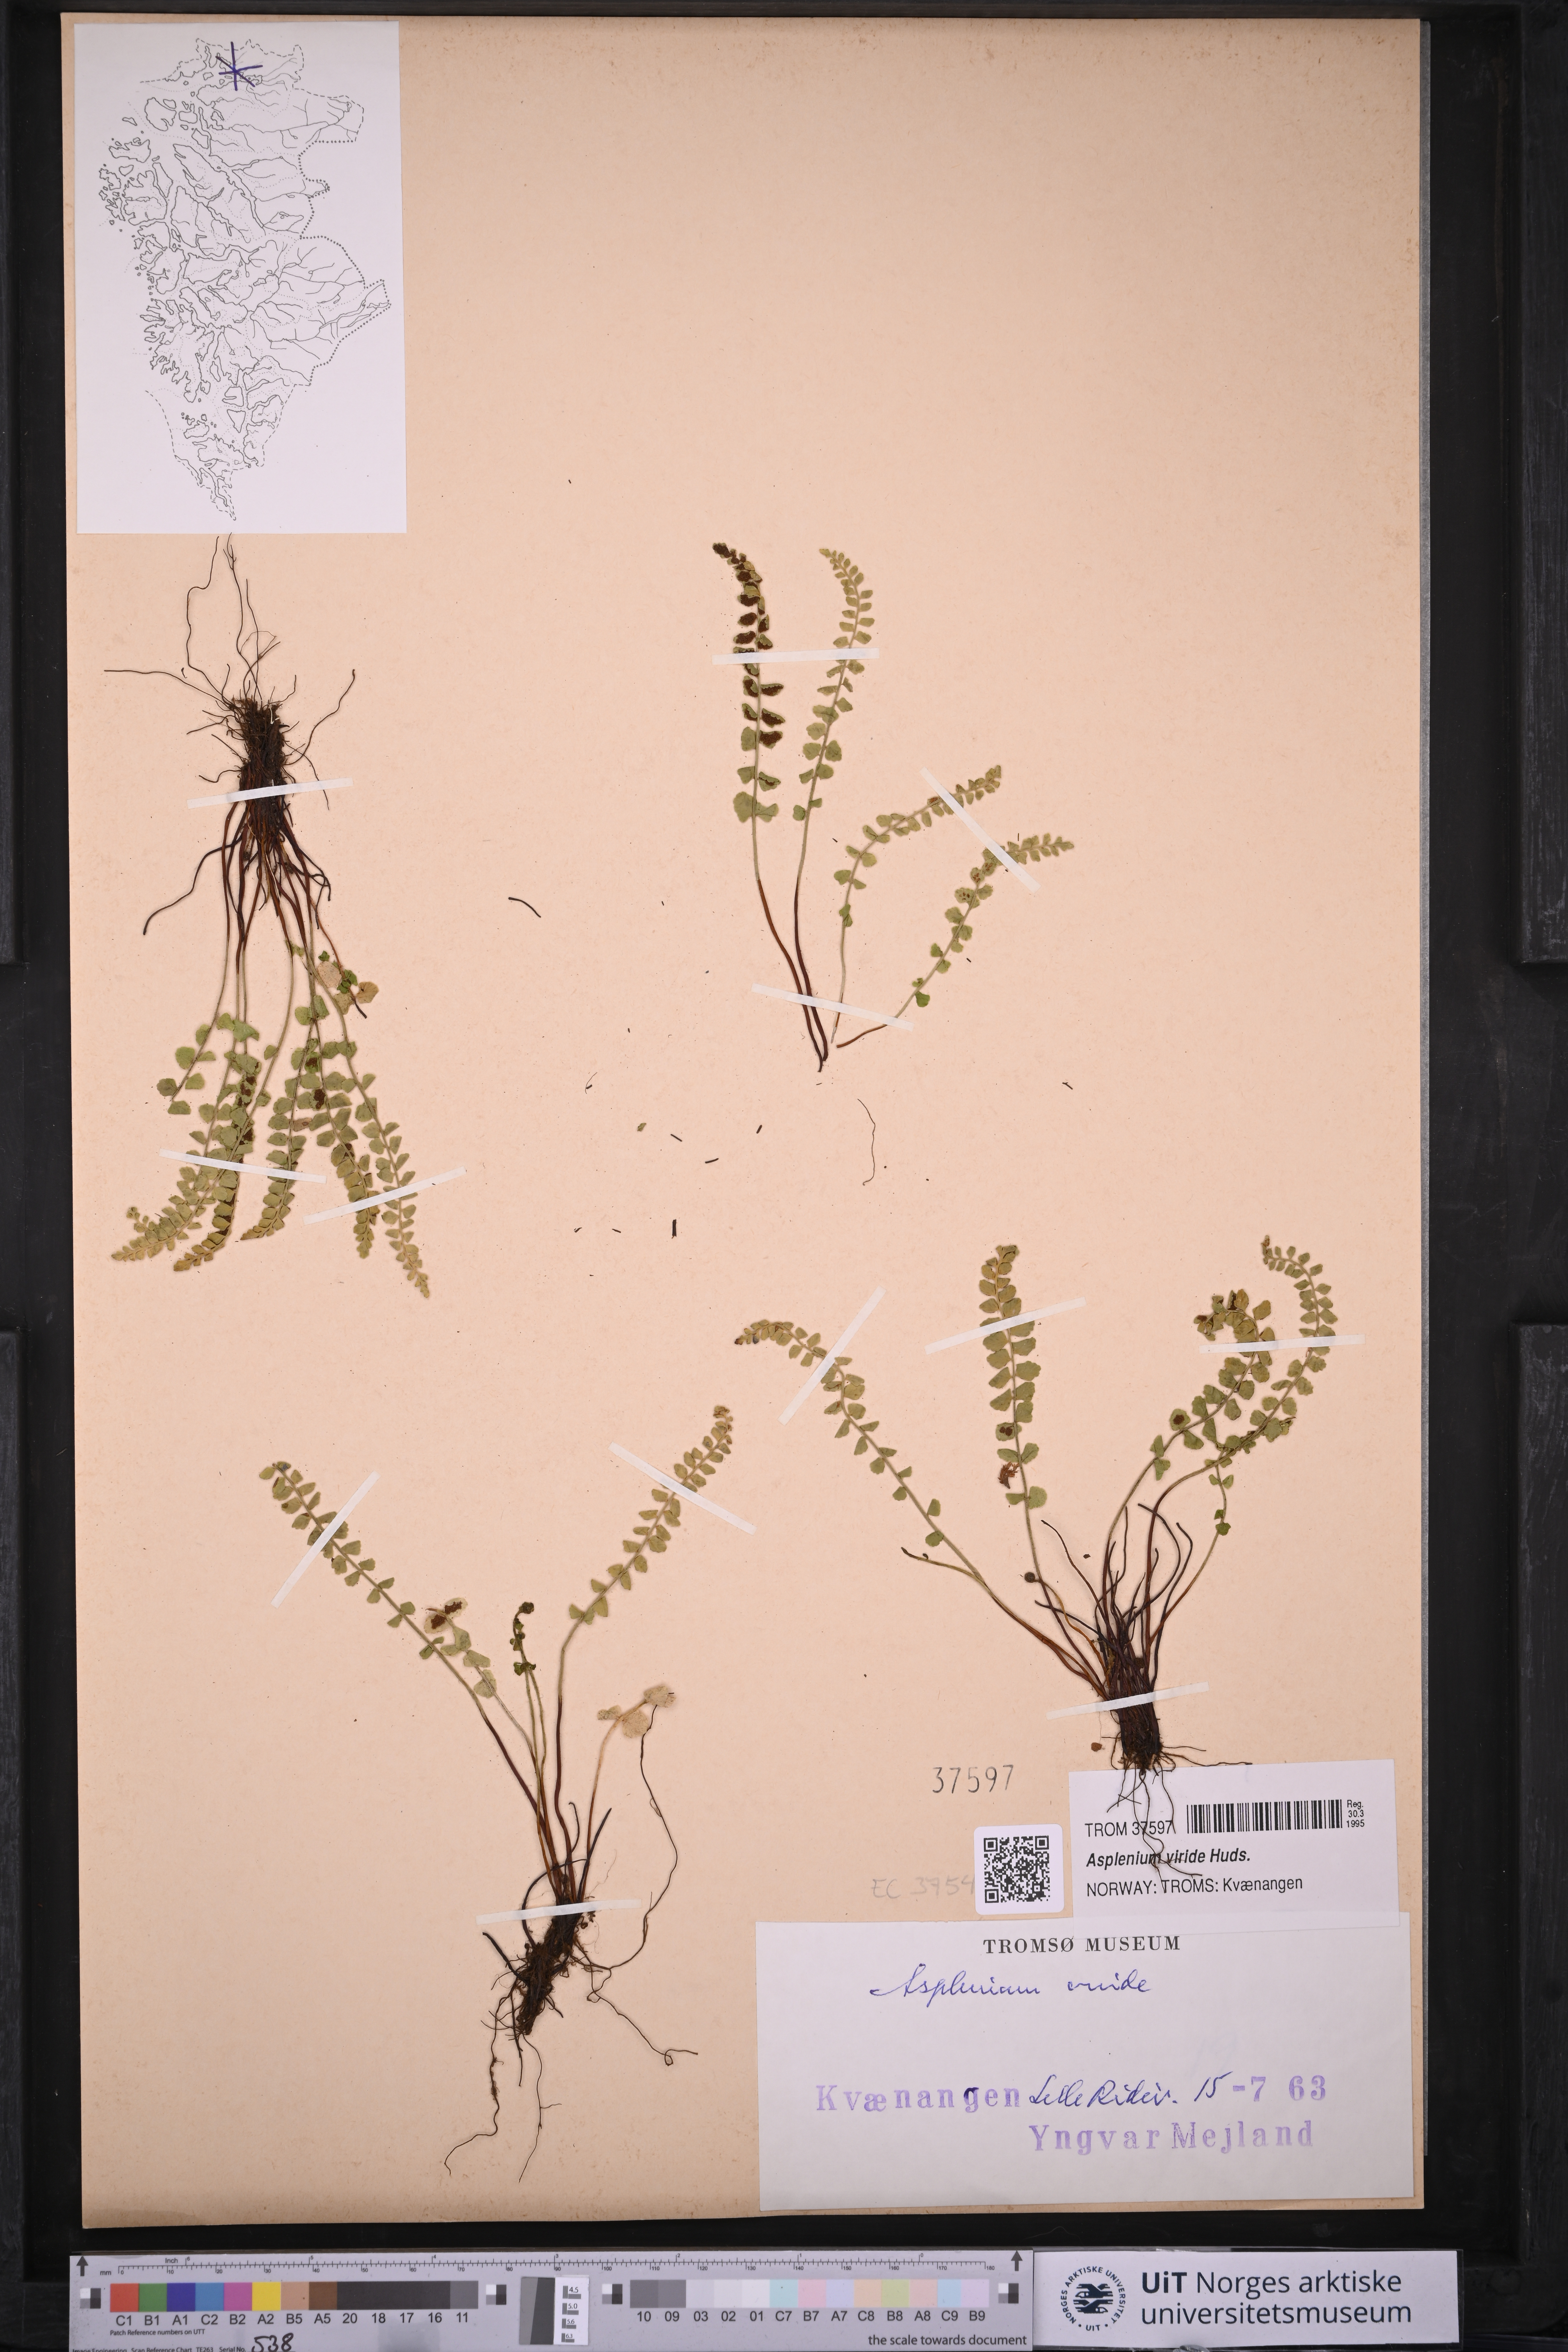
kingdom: Plantae
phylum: Tracheophyta
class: Polypodiopsida
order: Polypodiales
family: Aspleniaceae
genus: Asplenium
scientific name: Asplenium viride
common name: Green spleenwort
